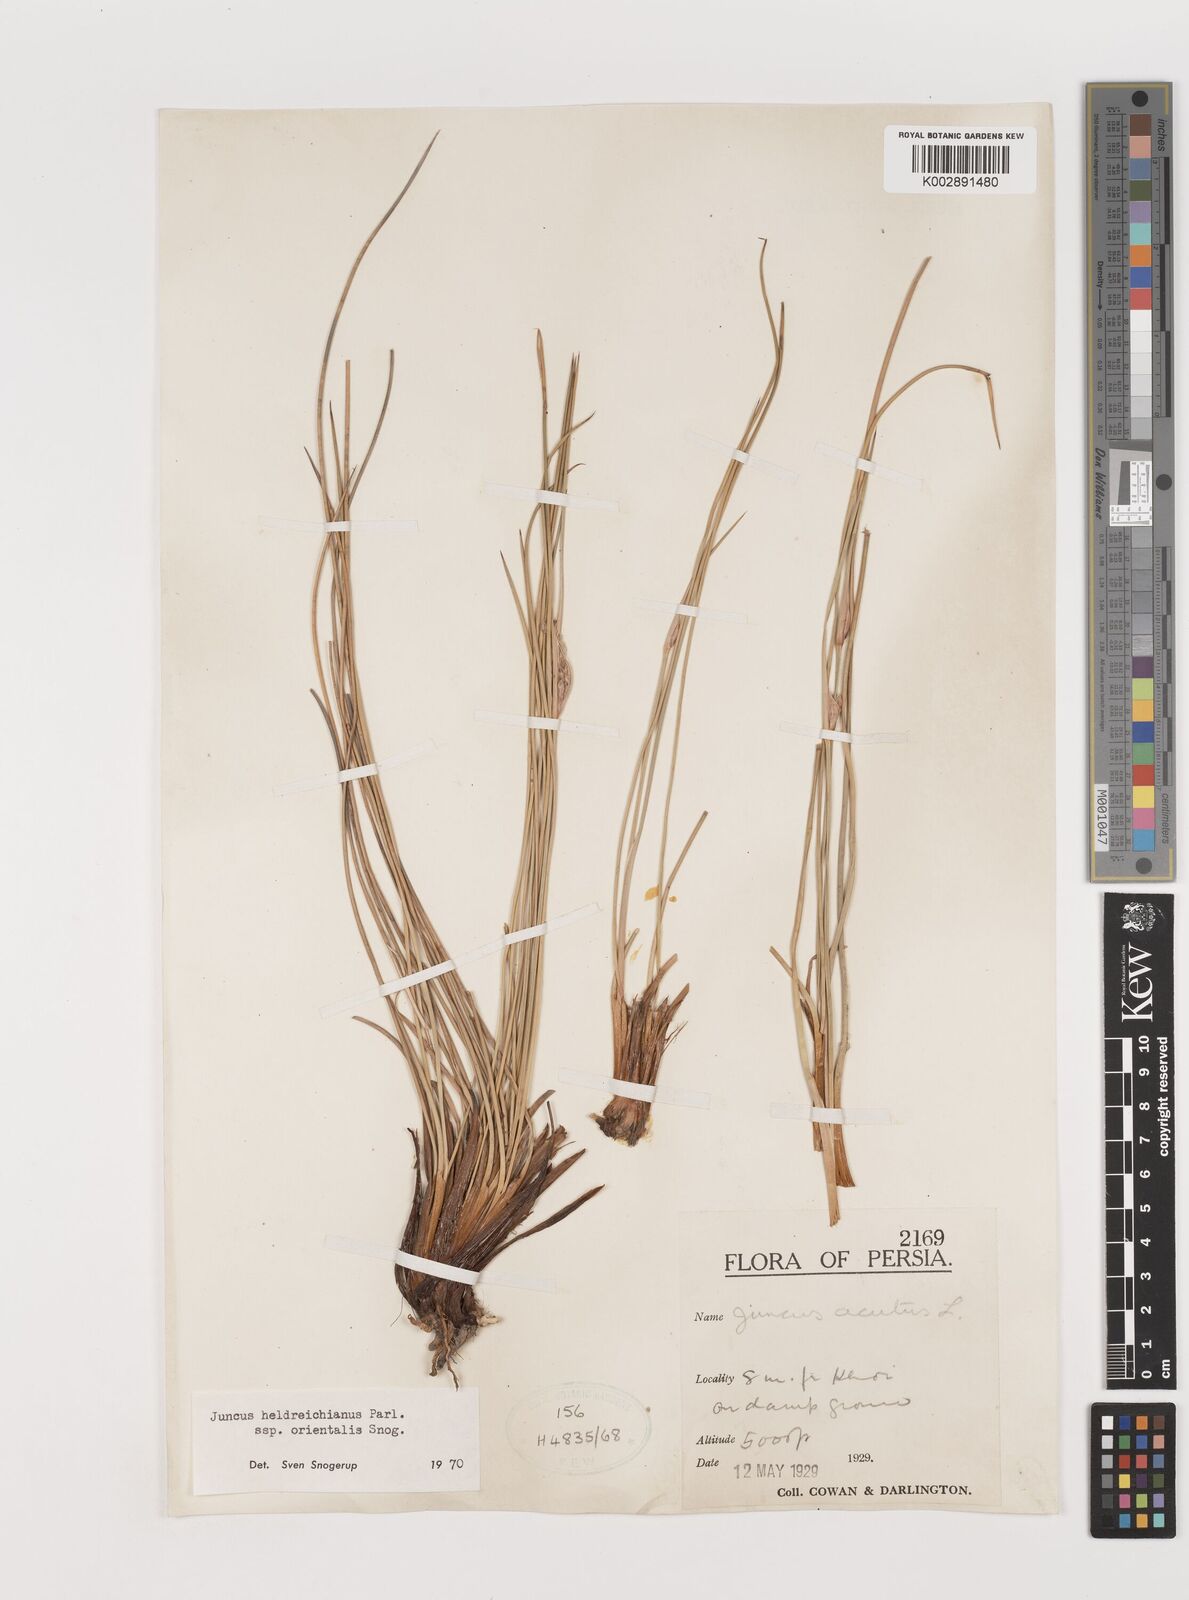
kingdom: Plantae
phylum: Tracheophyta
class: Liliopsida
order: Poales
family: Juncaceae
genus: Juncus
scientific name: Juncus heldreichianus
